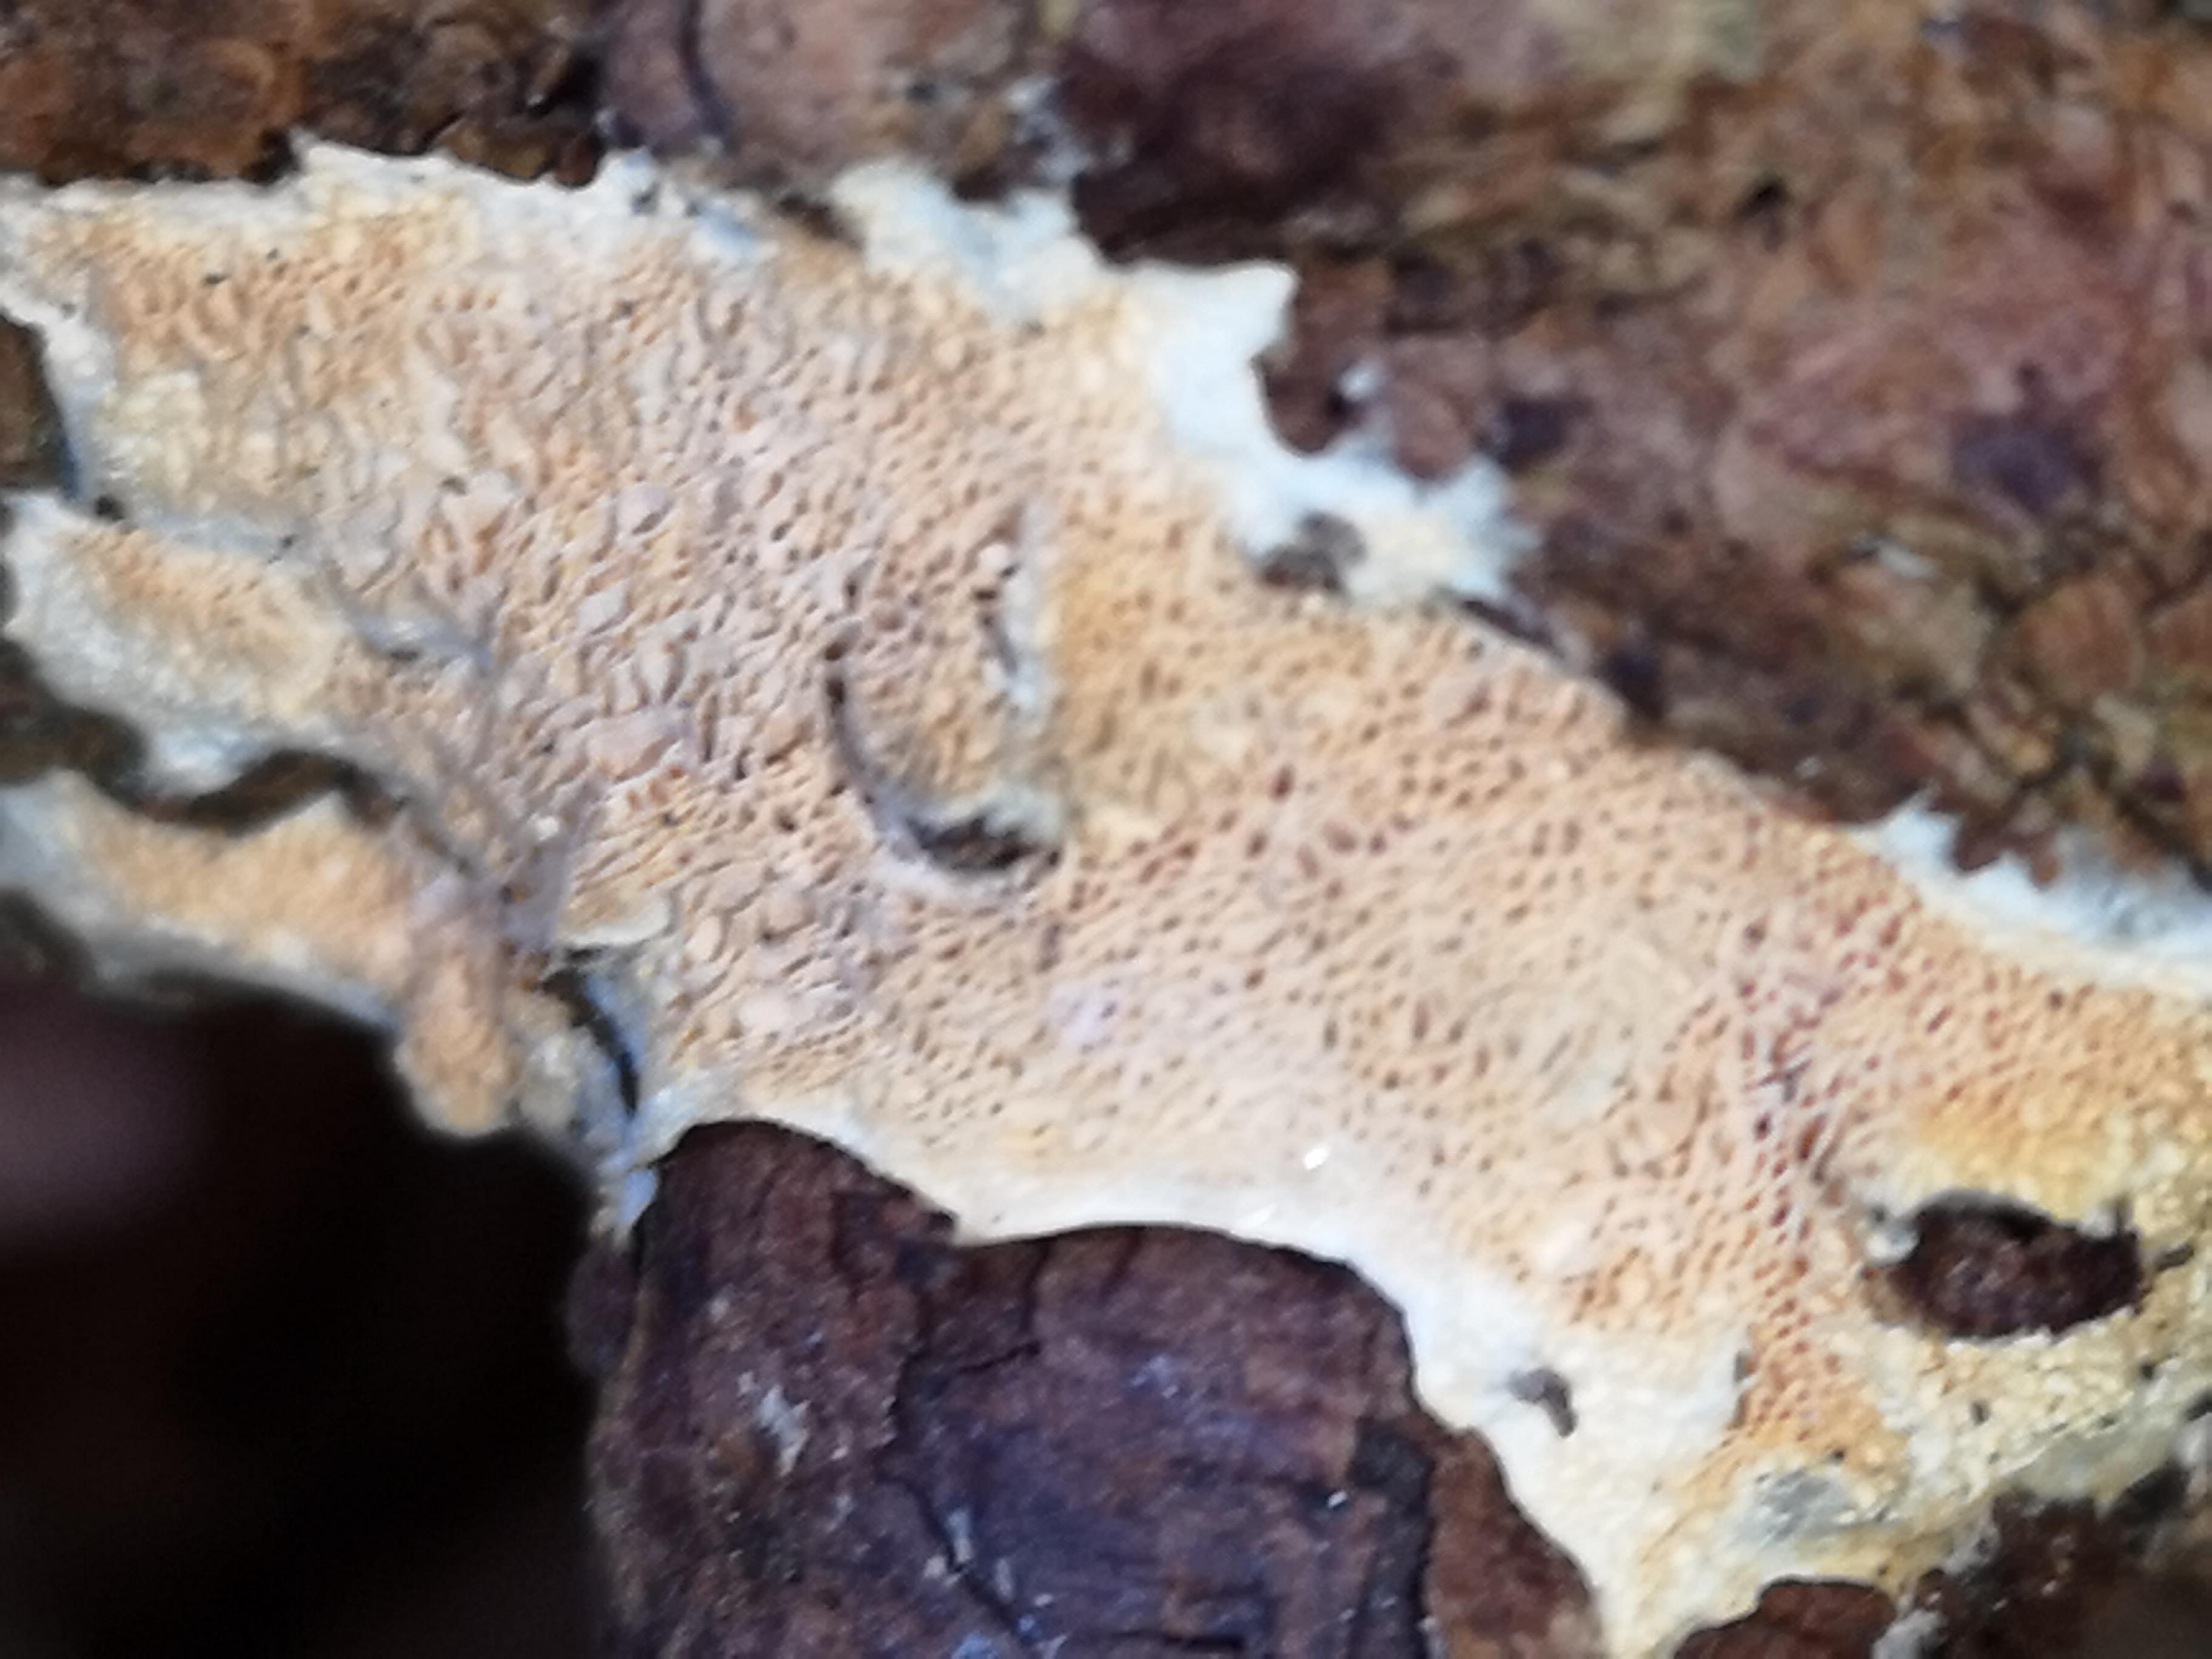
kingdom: Fungi
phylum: Basidiomycota
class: Agaricomycetes
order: Polyporales
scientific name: Polyporales
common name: poresvampordenen
